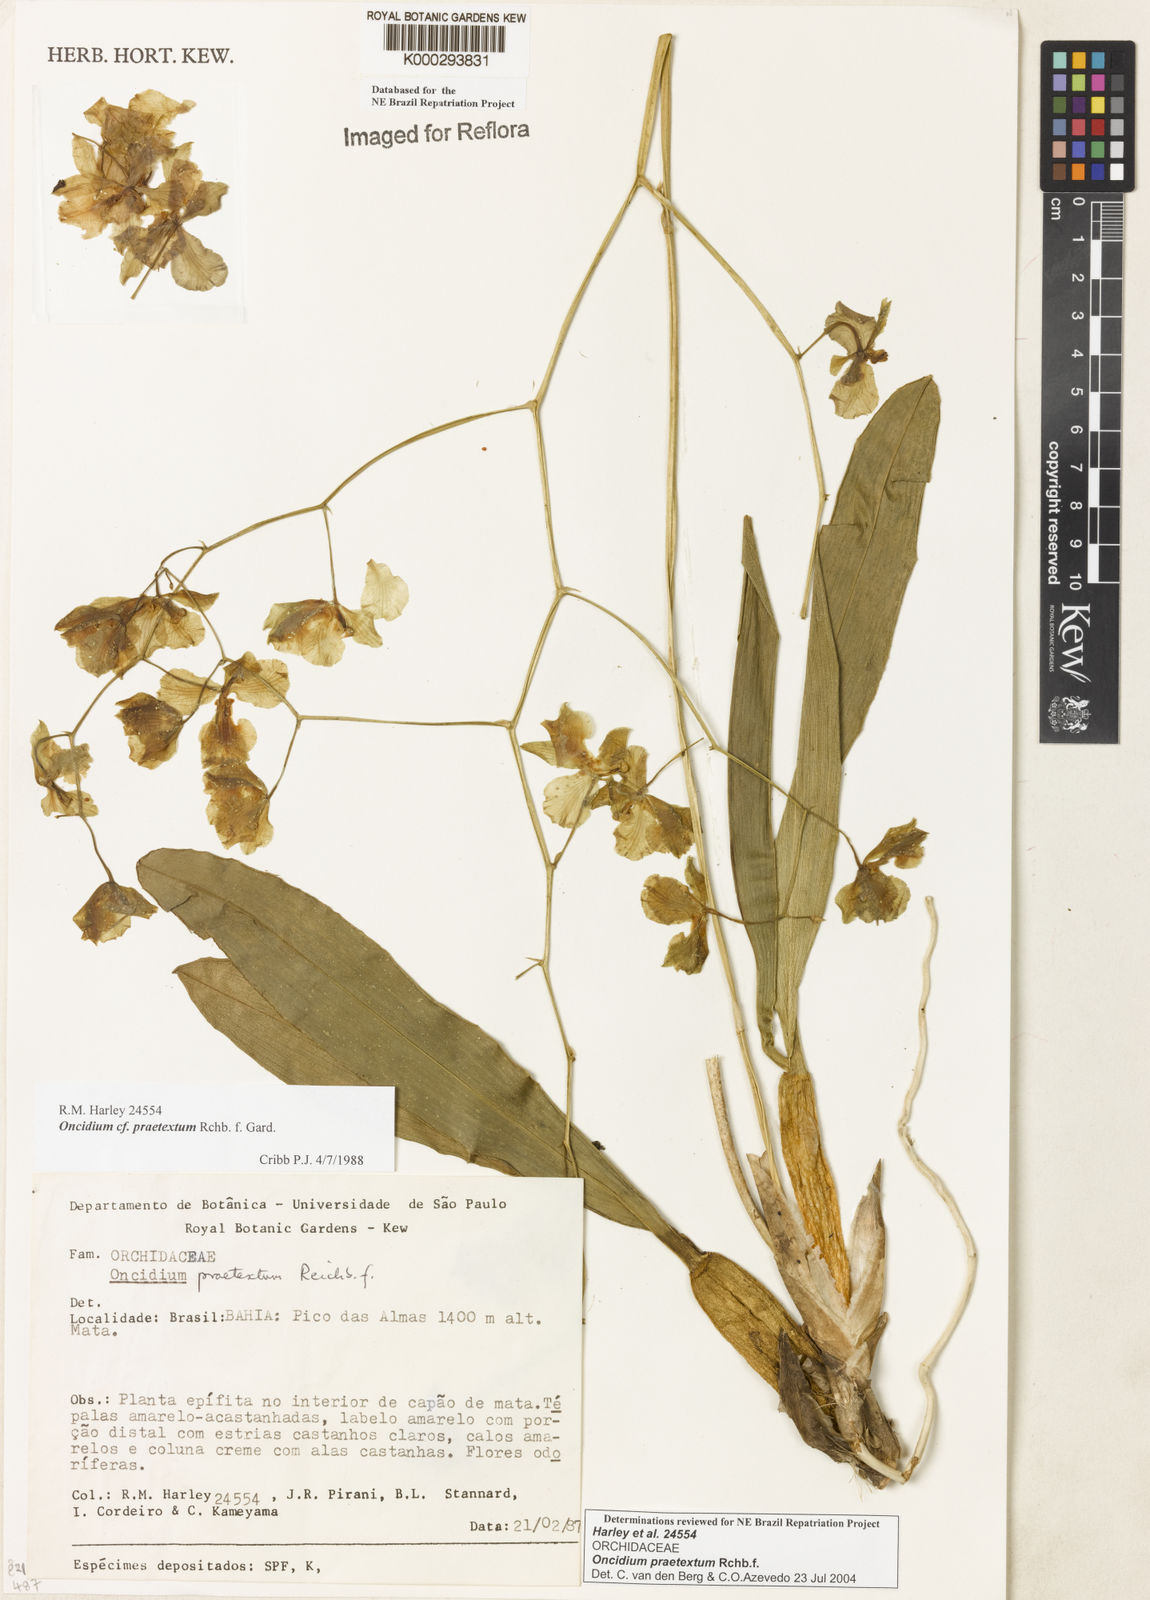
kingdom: Plantae
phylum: Tracheophyta
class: Liliopsida
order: Asparagales
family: Orchidaceae
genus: Gomesa
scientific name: Gomesa praetexta
